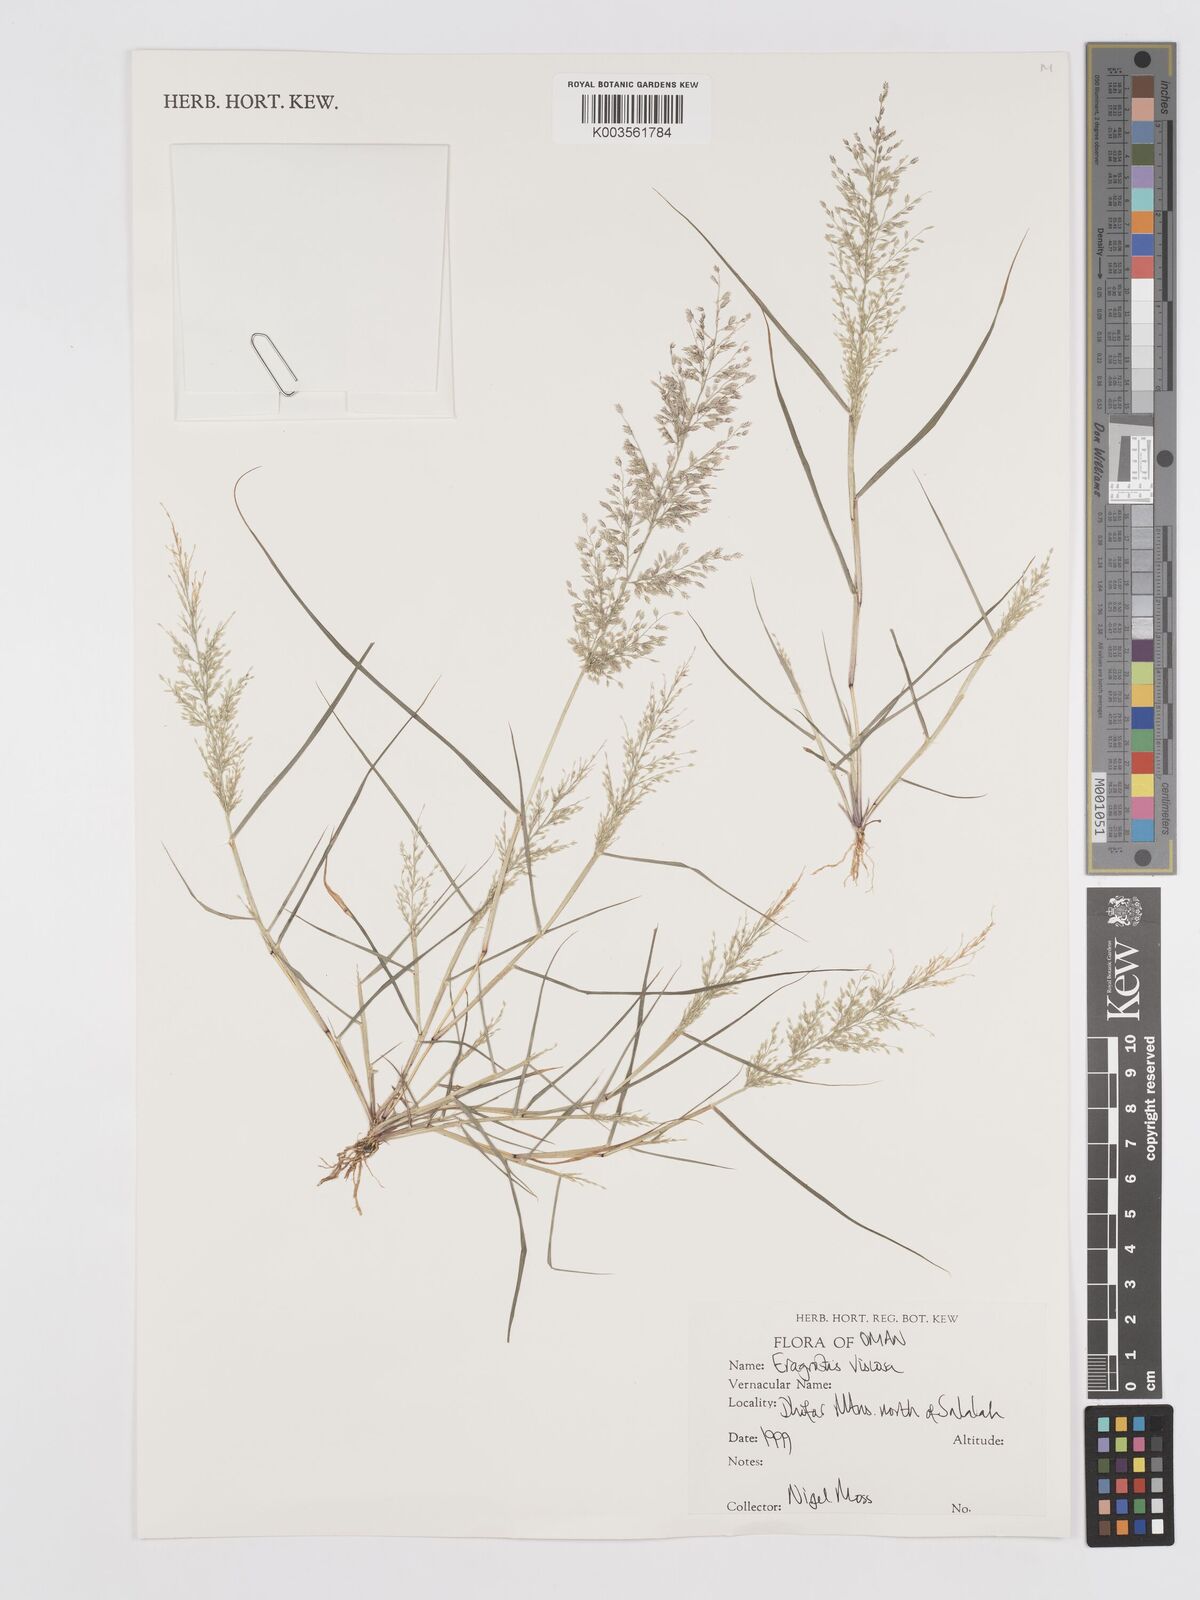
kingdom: Plantae
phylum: Tracheophyta
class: Liliopsida
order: Poales
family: Poaceae
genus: Eragrostis
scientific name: Eragrostis viscosa
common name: Sticky love grass
